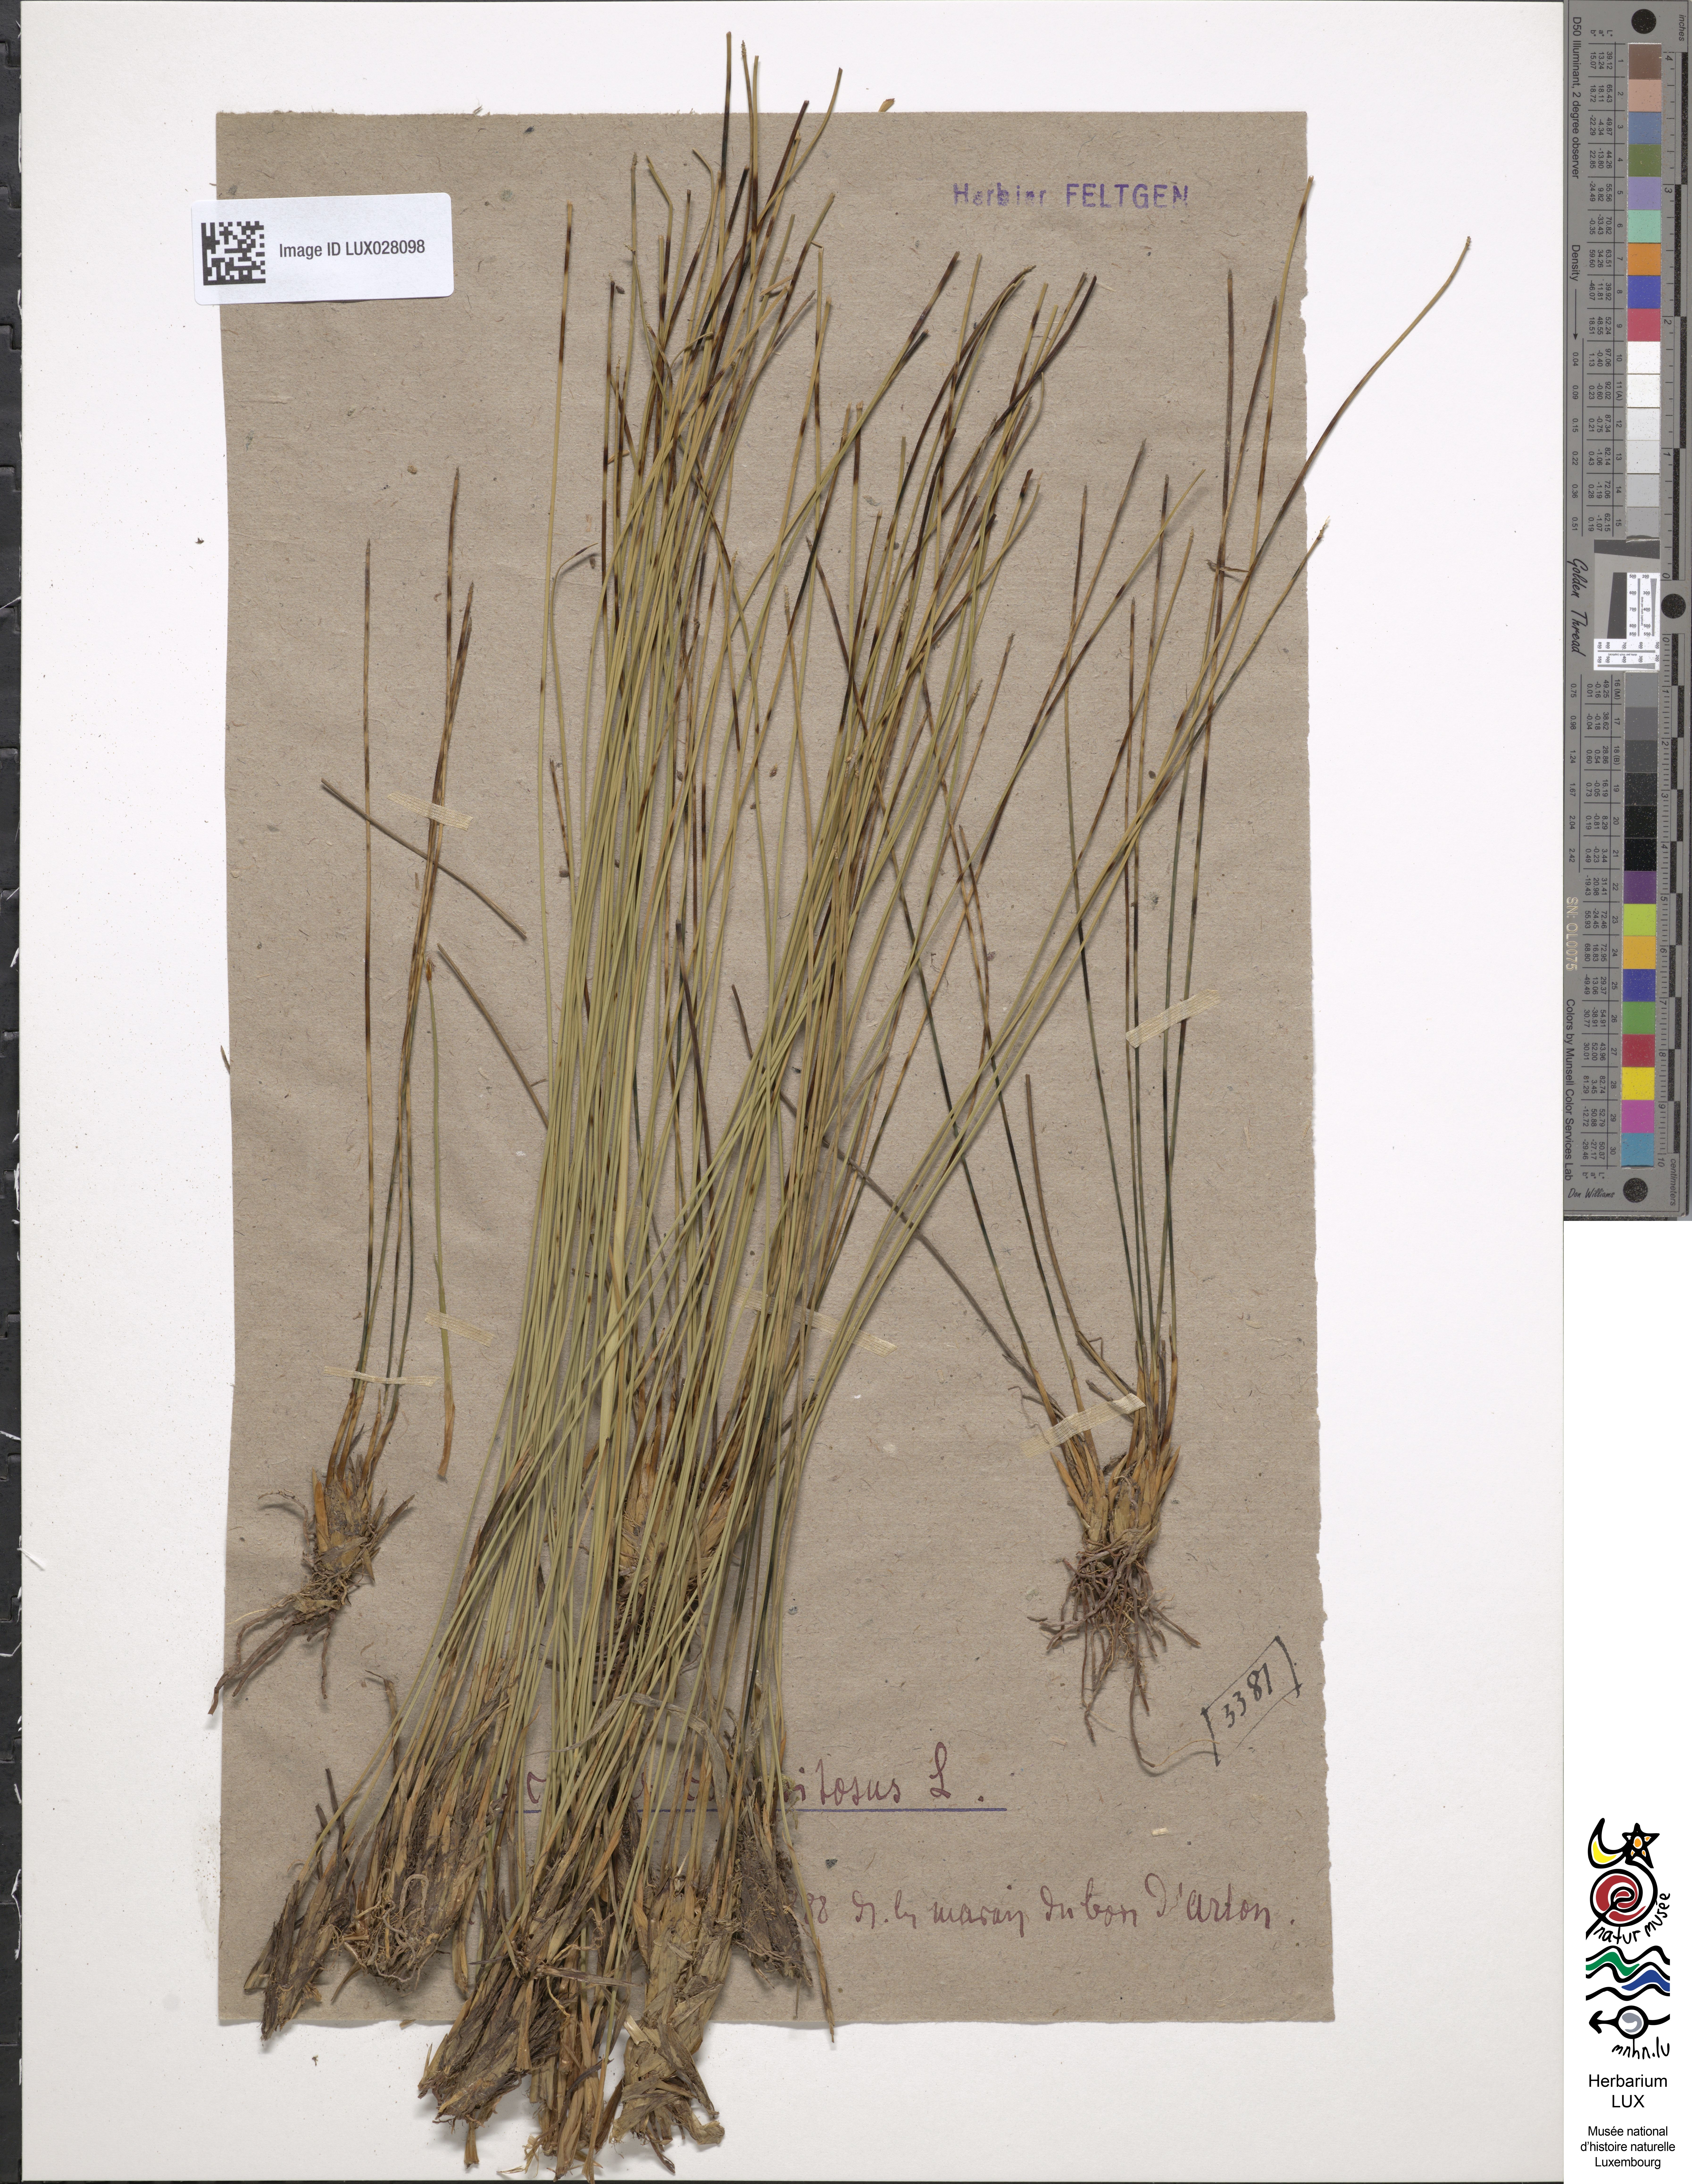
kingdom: Plantae
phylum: Tracheophyta
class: Liliopsida
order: Poales
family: Cyperaceae
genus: Trichophorum
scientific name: Trichophorum cespitosum
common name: Cespitose bulrush
